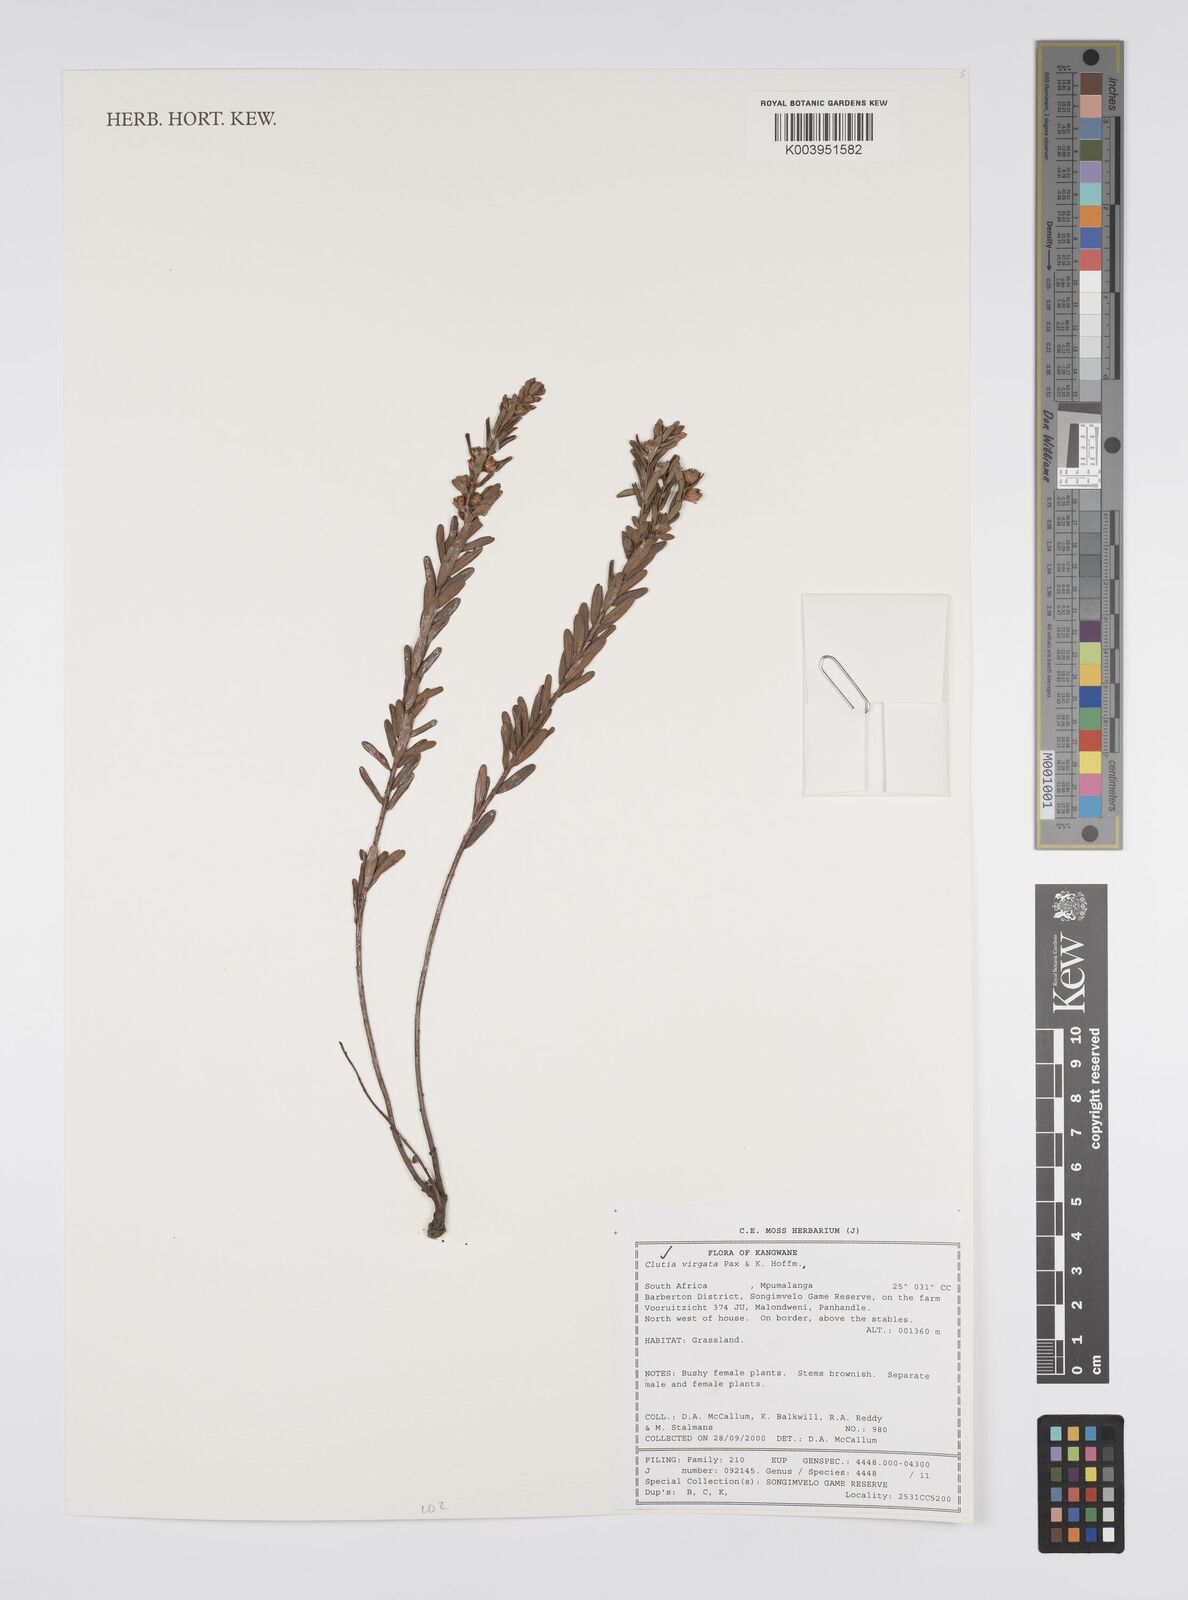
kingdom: Plantae
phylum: Tracheophyta
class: Magnoliopsida
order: Malpighiales
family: Peraceae
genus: Clutia
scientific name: Clutia virgata
